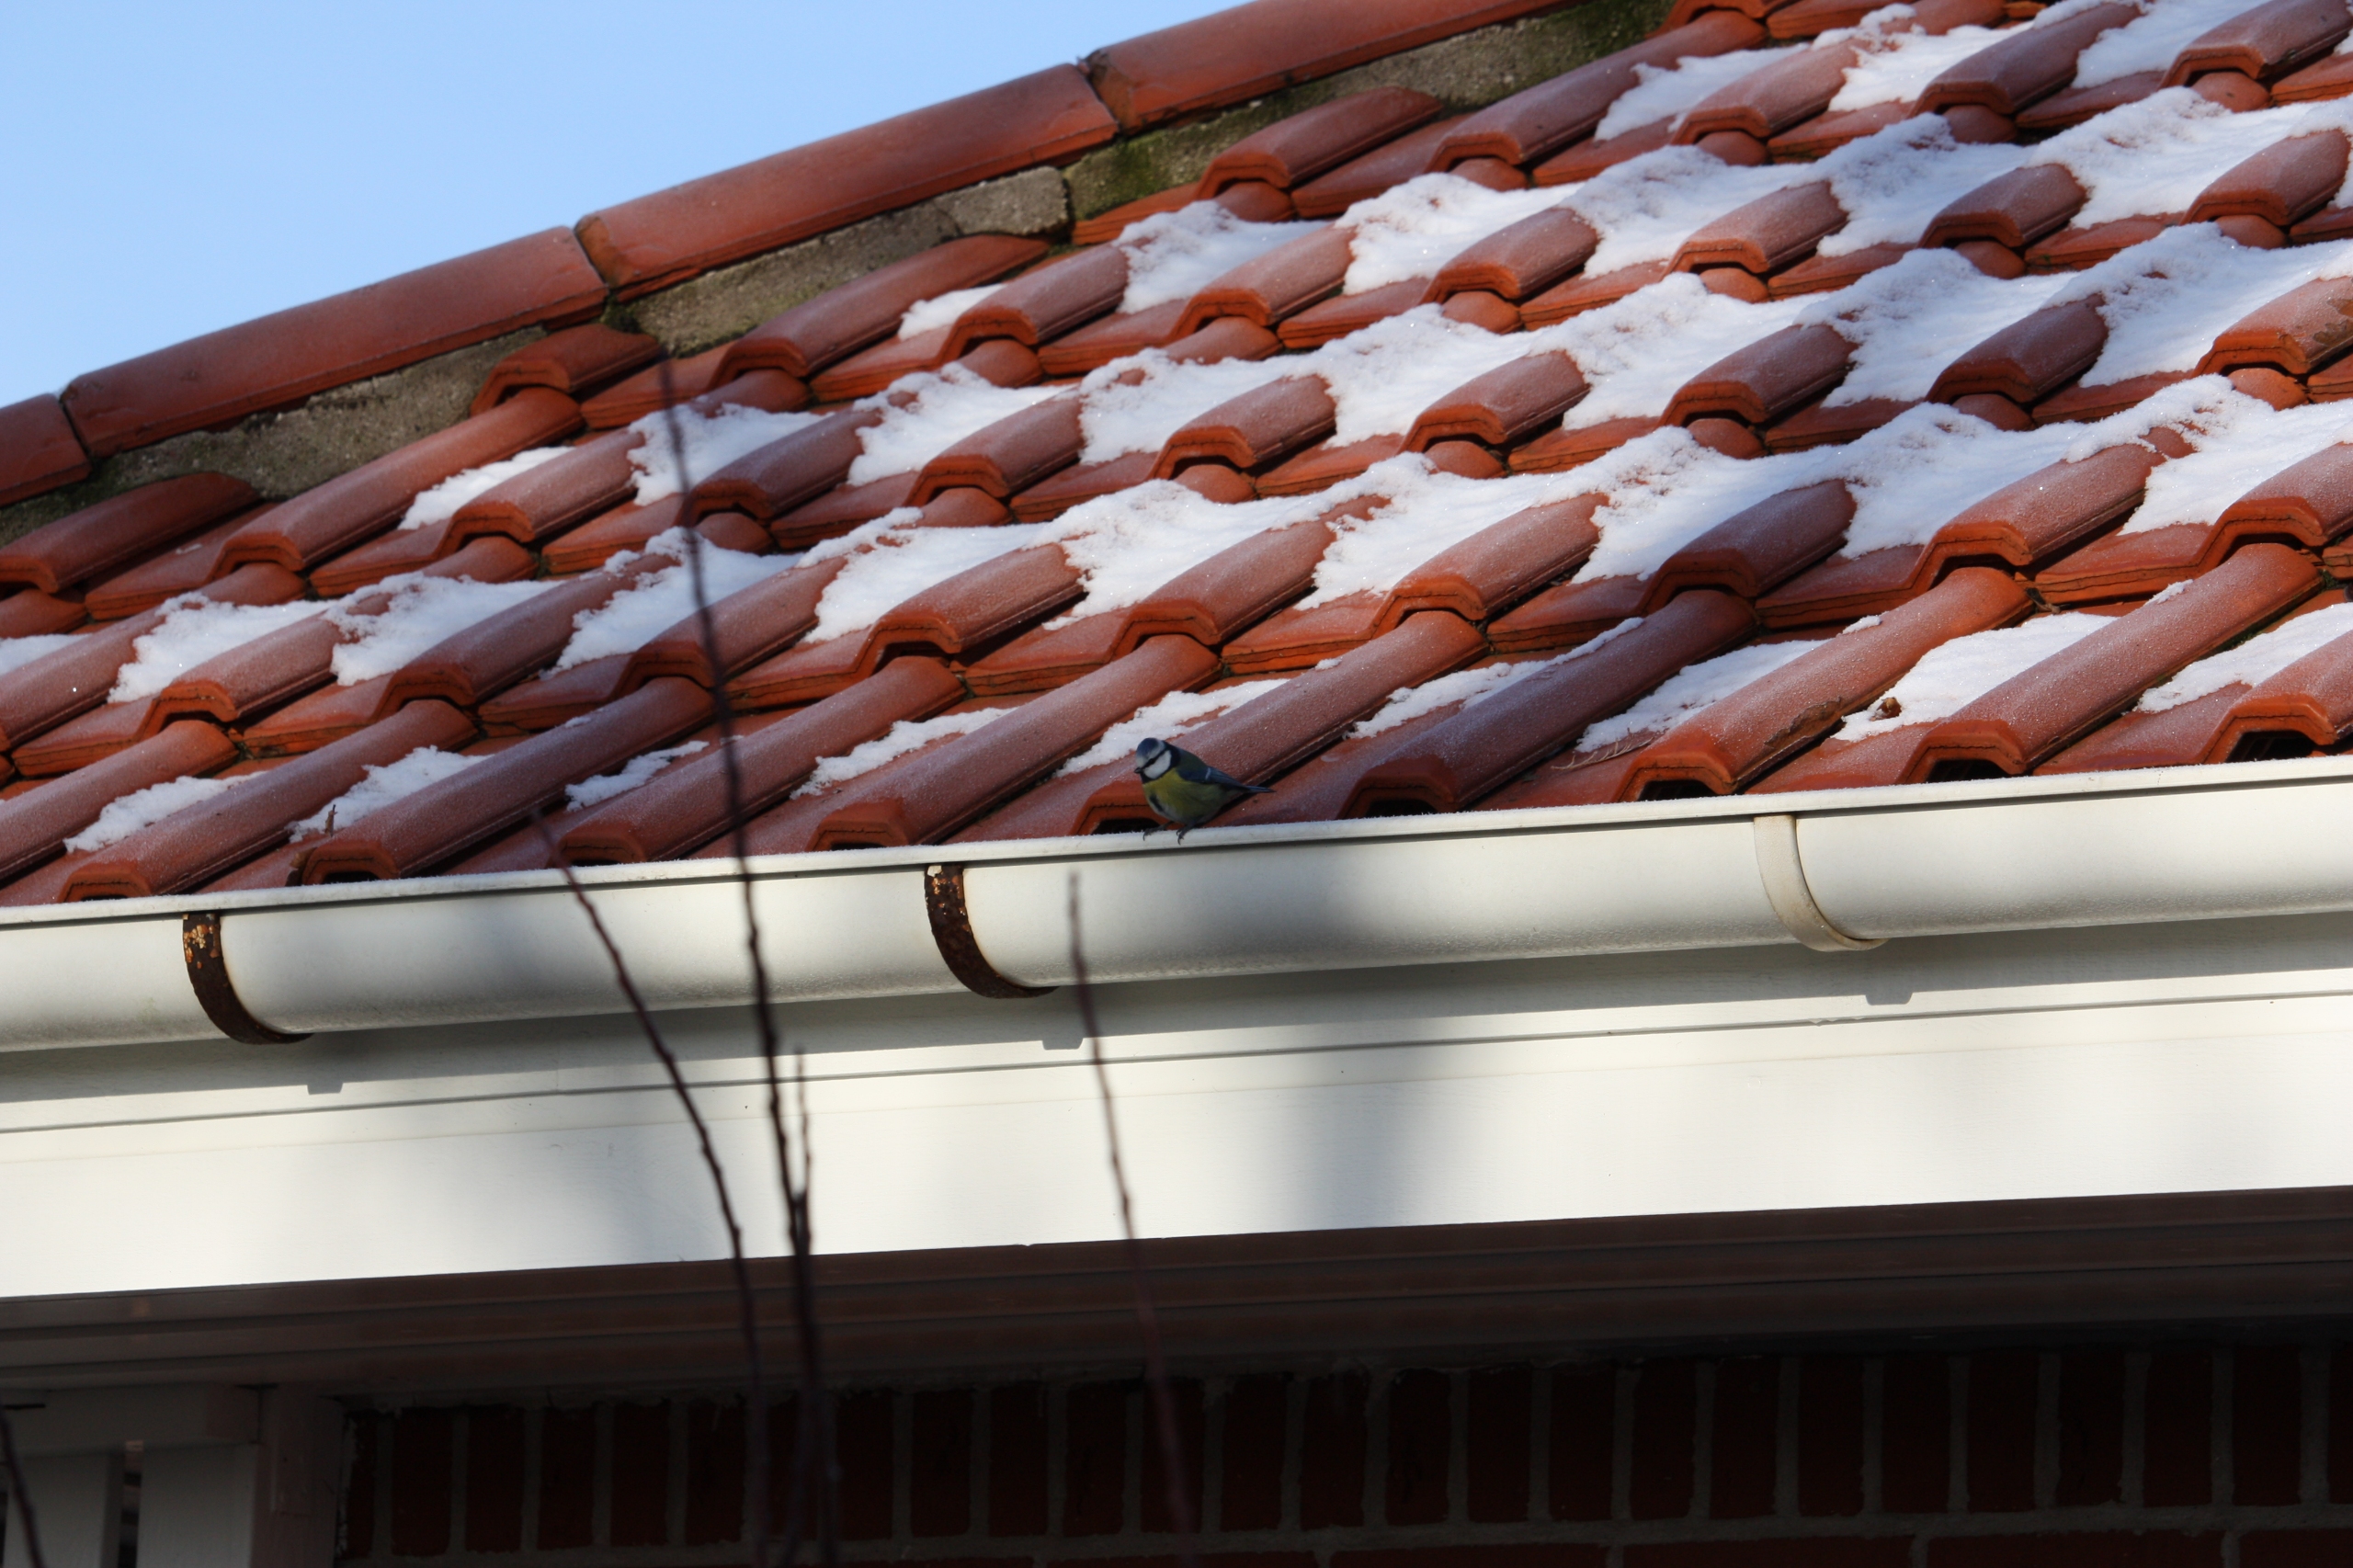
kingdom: Animalia
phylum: Chordata
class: Aves
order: Passeriformes
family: Paridae
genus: Cyanistes
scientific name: Cyanistes caeruleus
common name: Blåmejse
